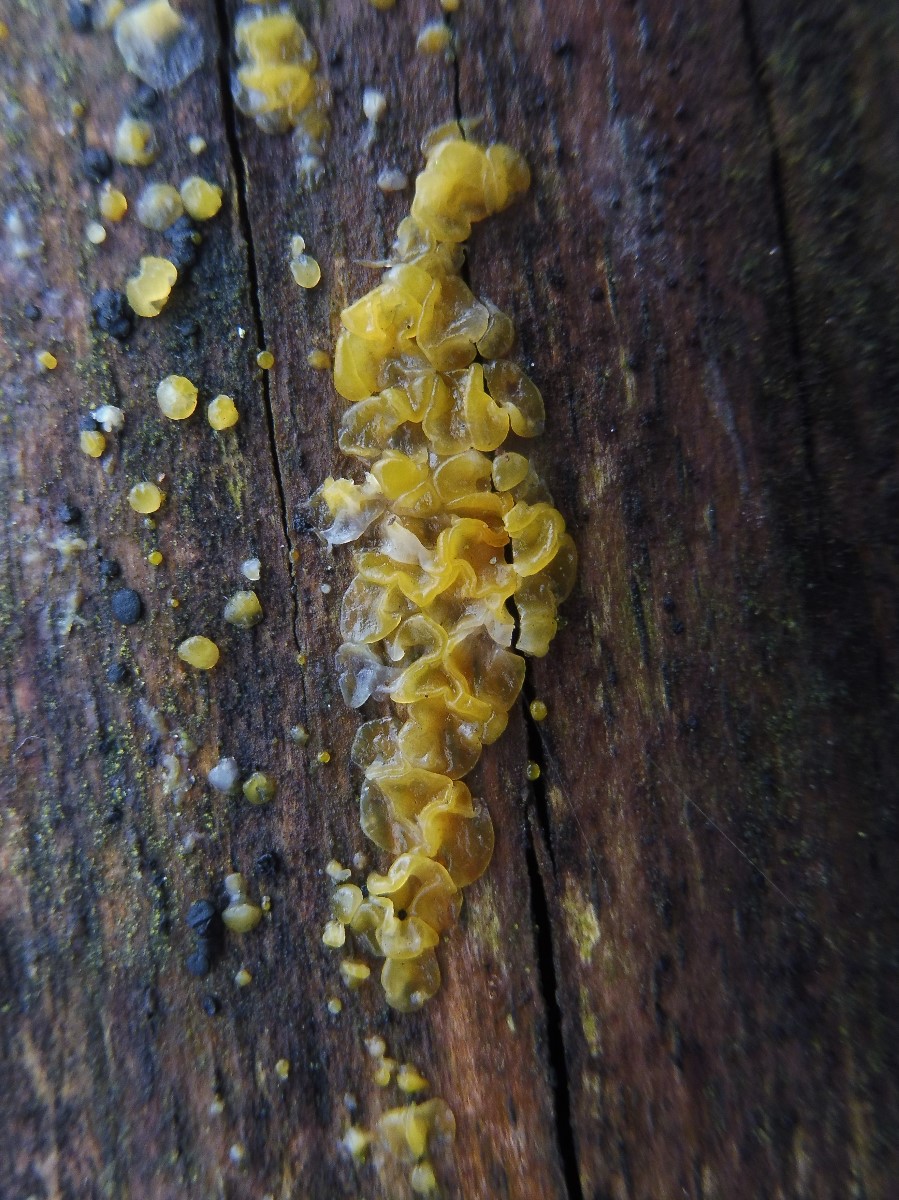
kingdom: Fungi
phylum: Basidiomycota
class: Dacrymycetes
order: Dacrymycetales
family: Dacrymycetaceae
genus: Dacrymyces
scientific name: Dacrymyces lacrymalis
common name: rynket tåresvamp
